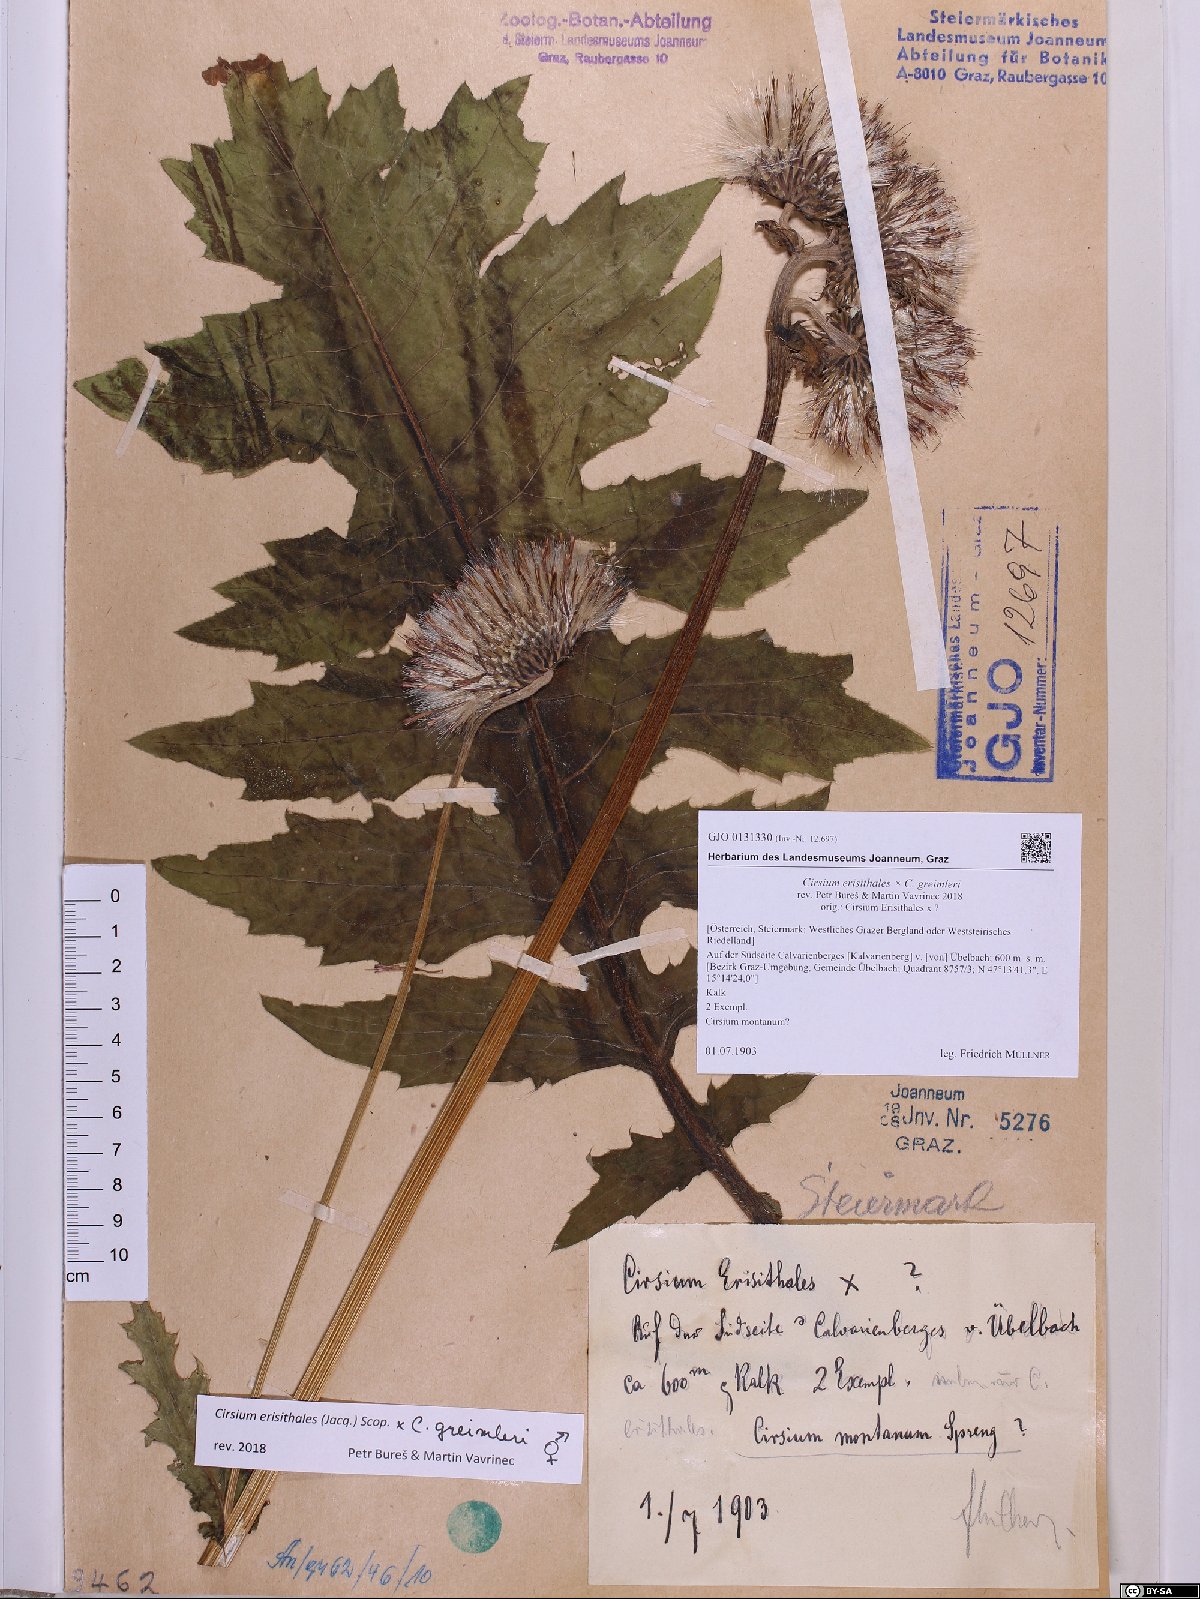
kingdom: Plantae
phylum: Tracheophyta
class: Magnoliopsida
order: Asterales
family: Asteraceae
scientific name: Asteraceae
